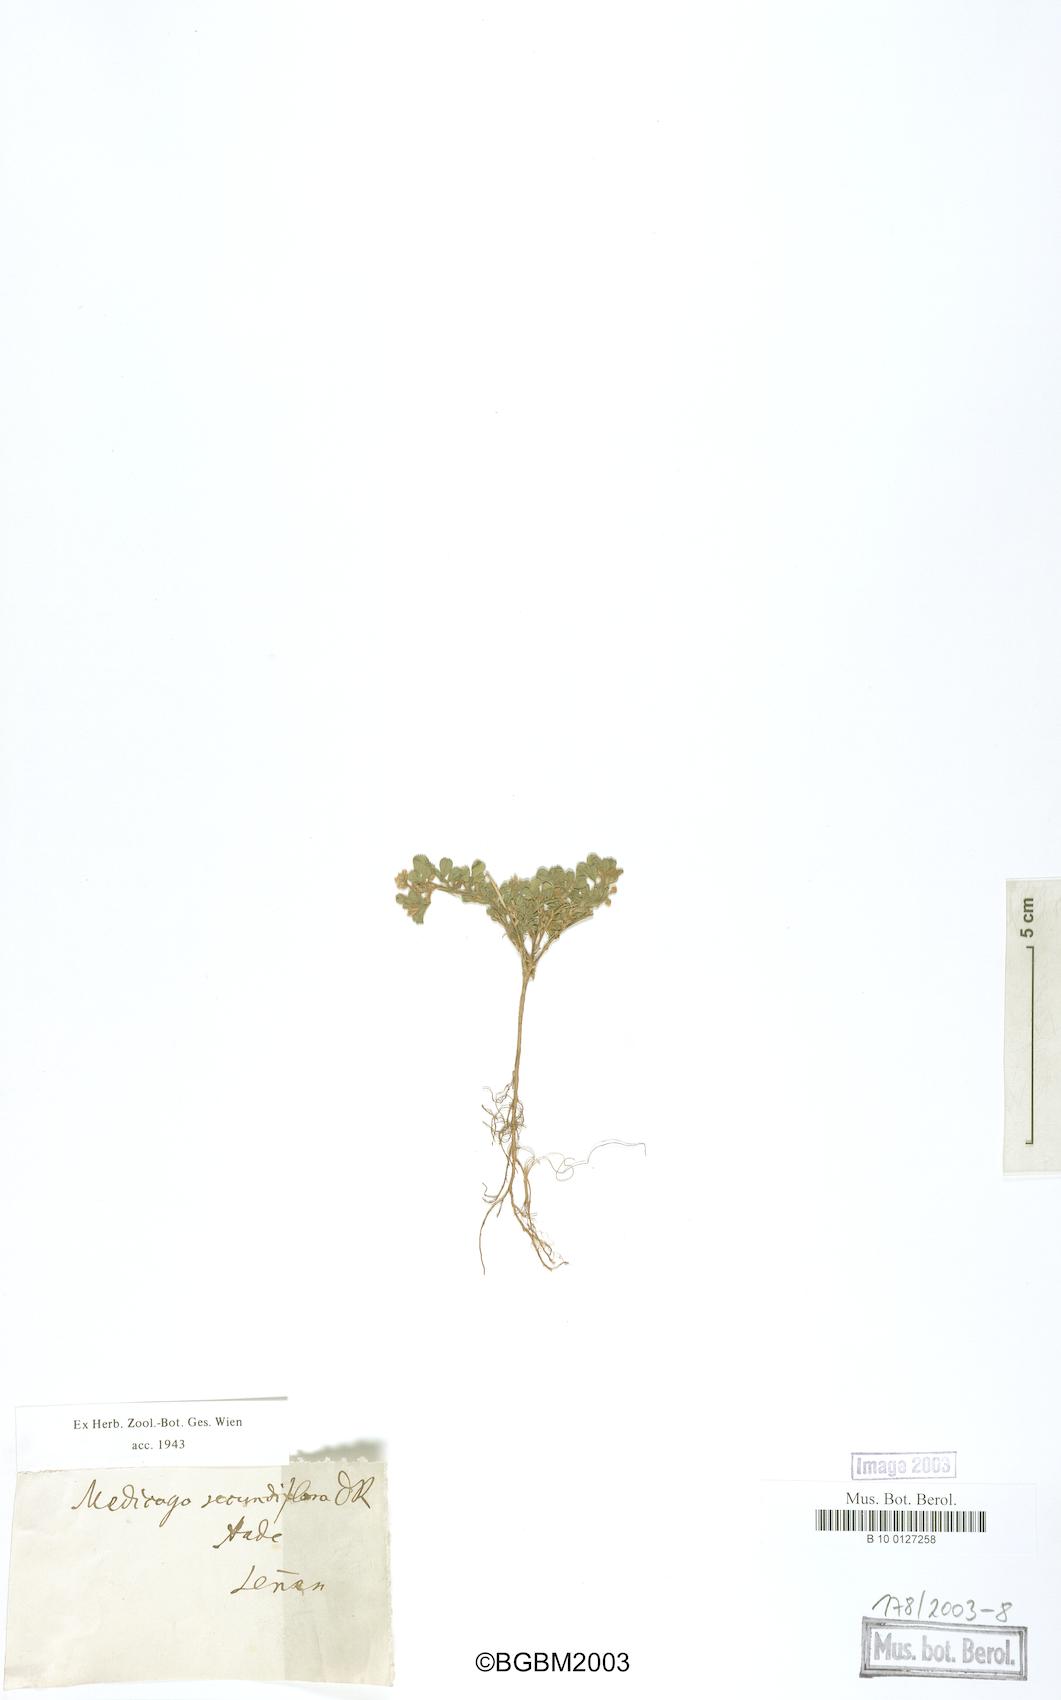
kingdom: Plantae
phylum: Tracheophyta
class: Magnoliopsida
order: Fabales
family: Fabaceae
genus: Medicago
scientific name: Medicago secundiflora
